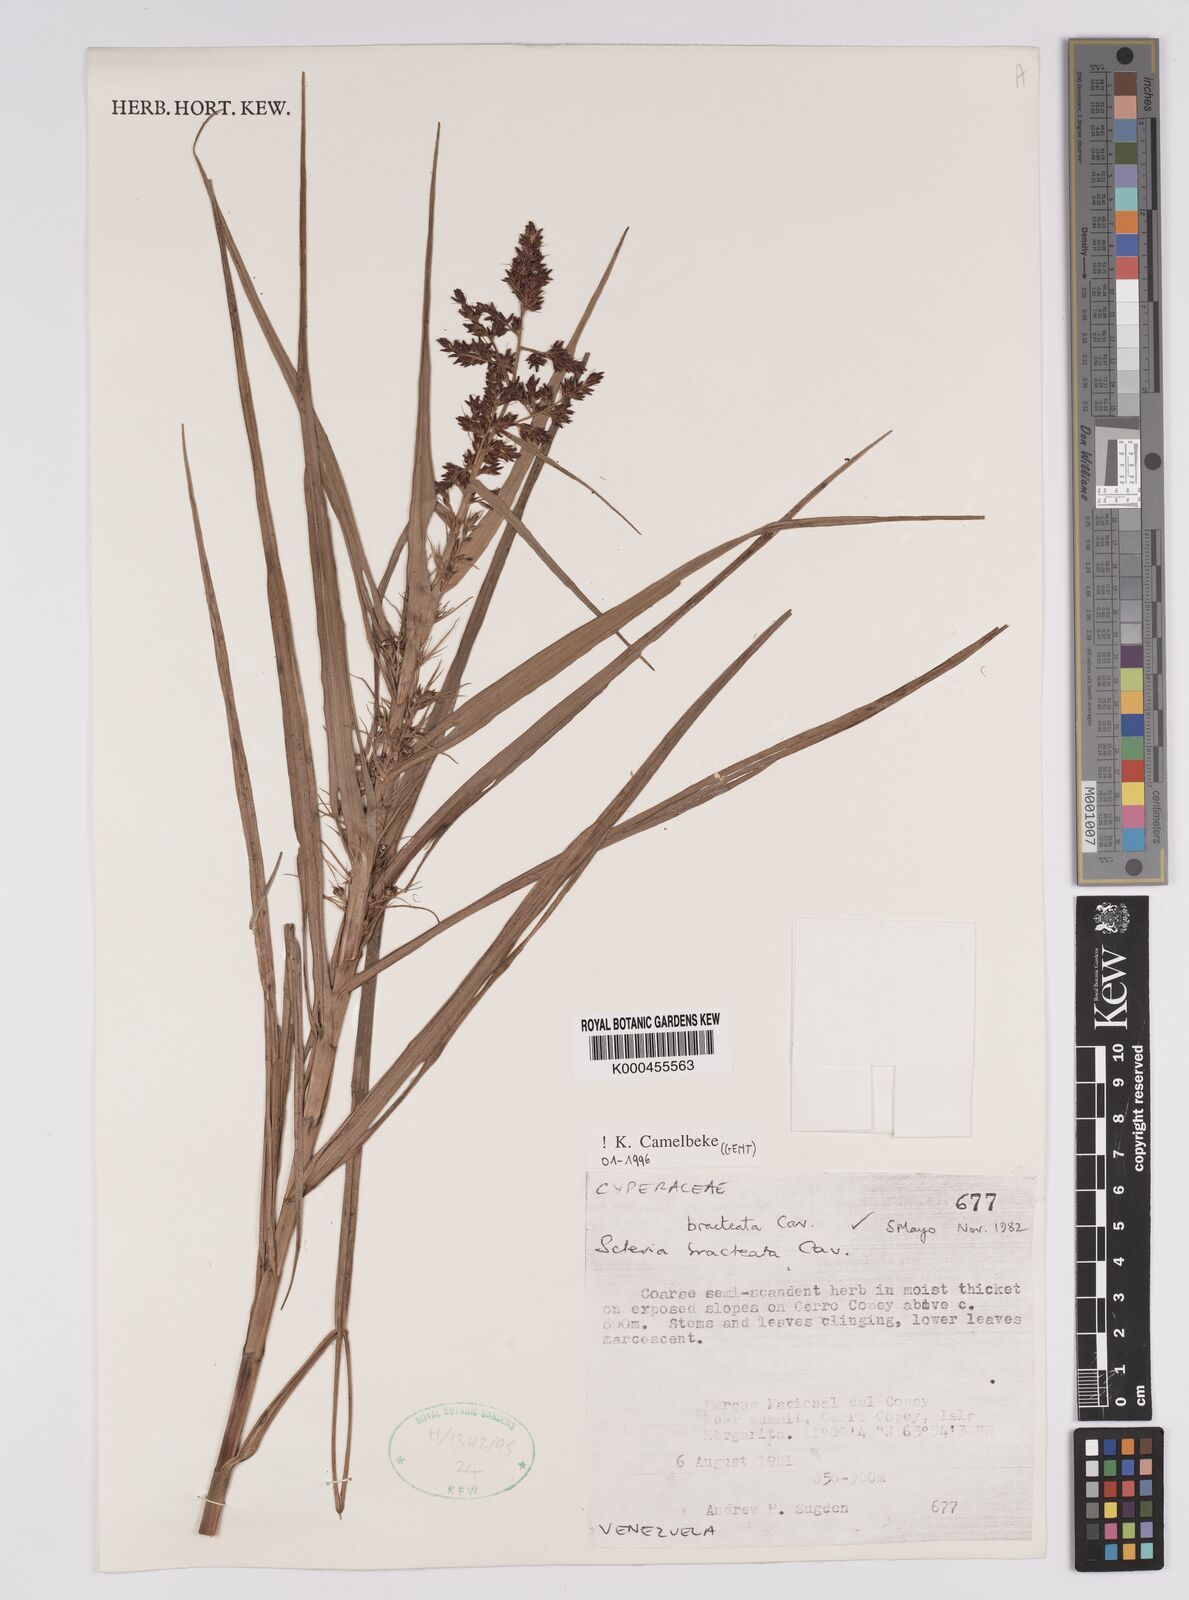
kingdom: Plantae
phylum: Tracheophyta
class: Liliopsida
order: Poales
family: Cyperaceae
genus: Scleria
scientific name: Scleria bracteata
